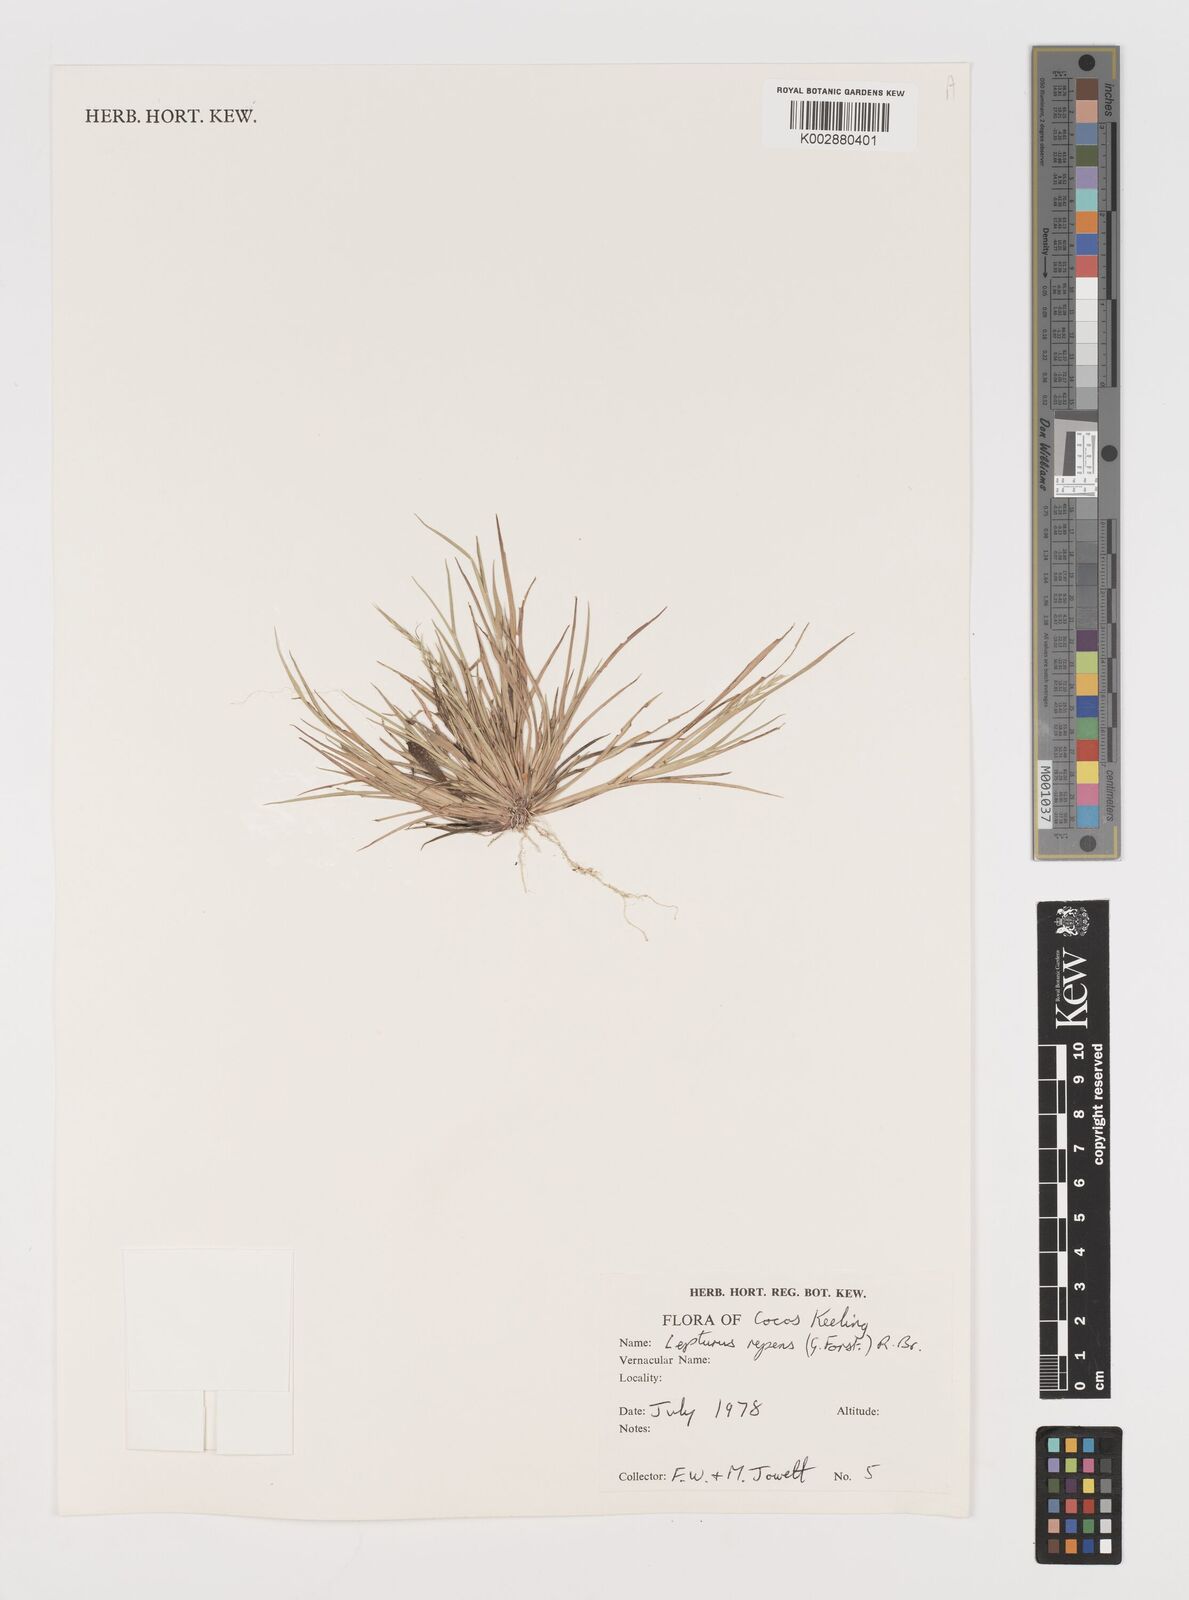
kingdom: Plantae
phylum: Tracheophyta
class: Liliopsida
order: Poales
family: Poaceae
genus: Lepturus
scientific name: Lepturus repens
